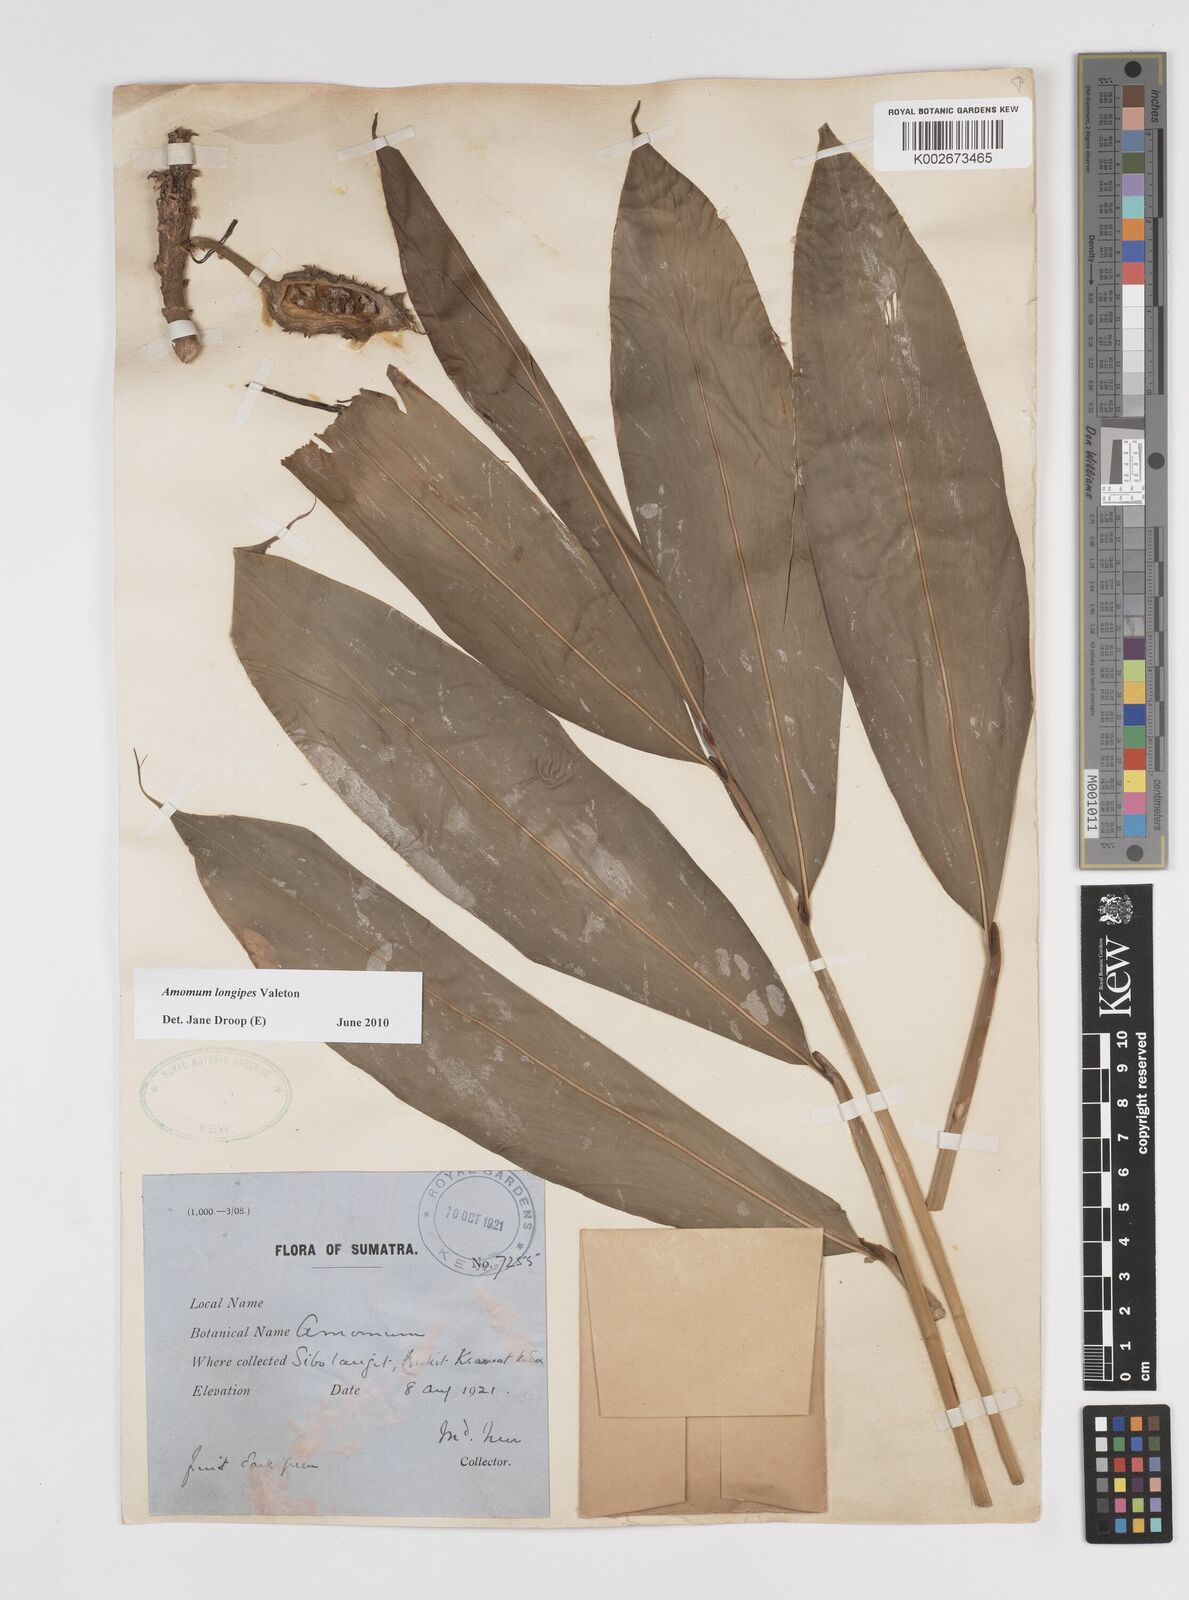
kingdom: Plantae
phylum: Tracheophyta
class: Liliopsida
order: Zingiberales
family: Zingiberaceae
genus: Amomum
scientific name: Amomum longipes
